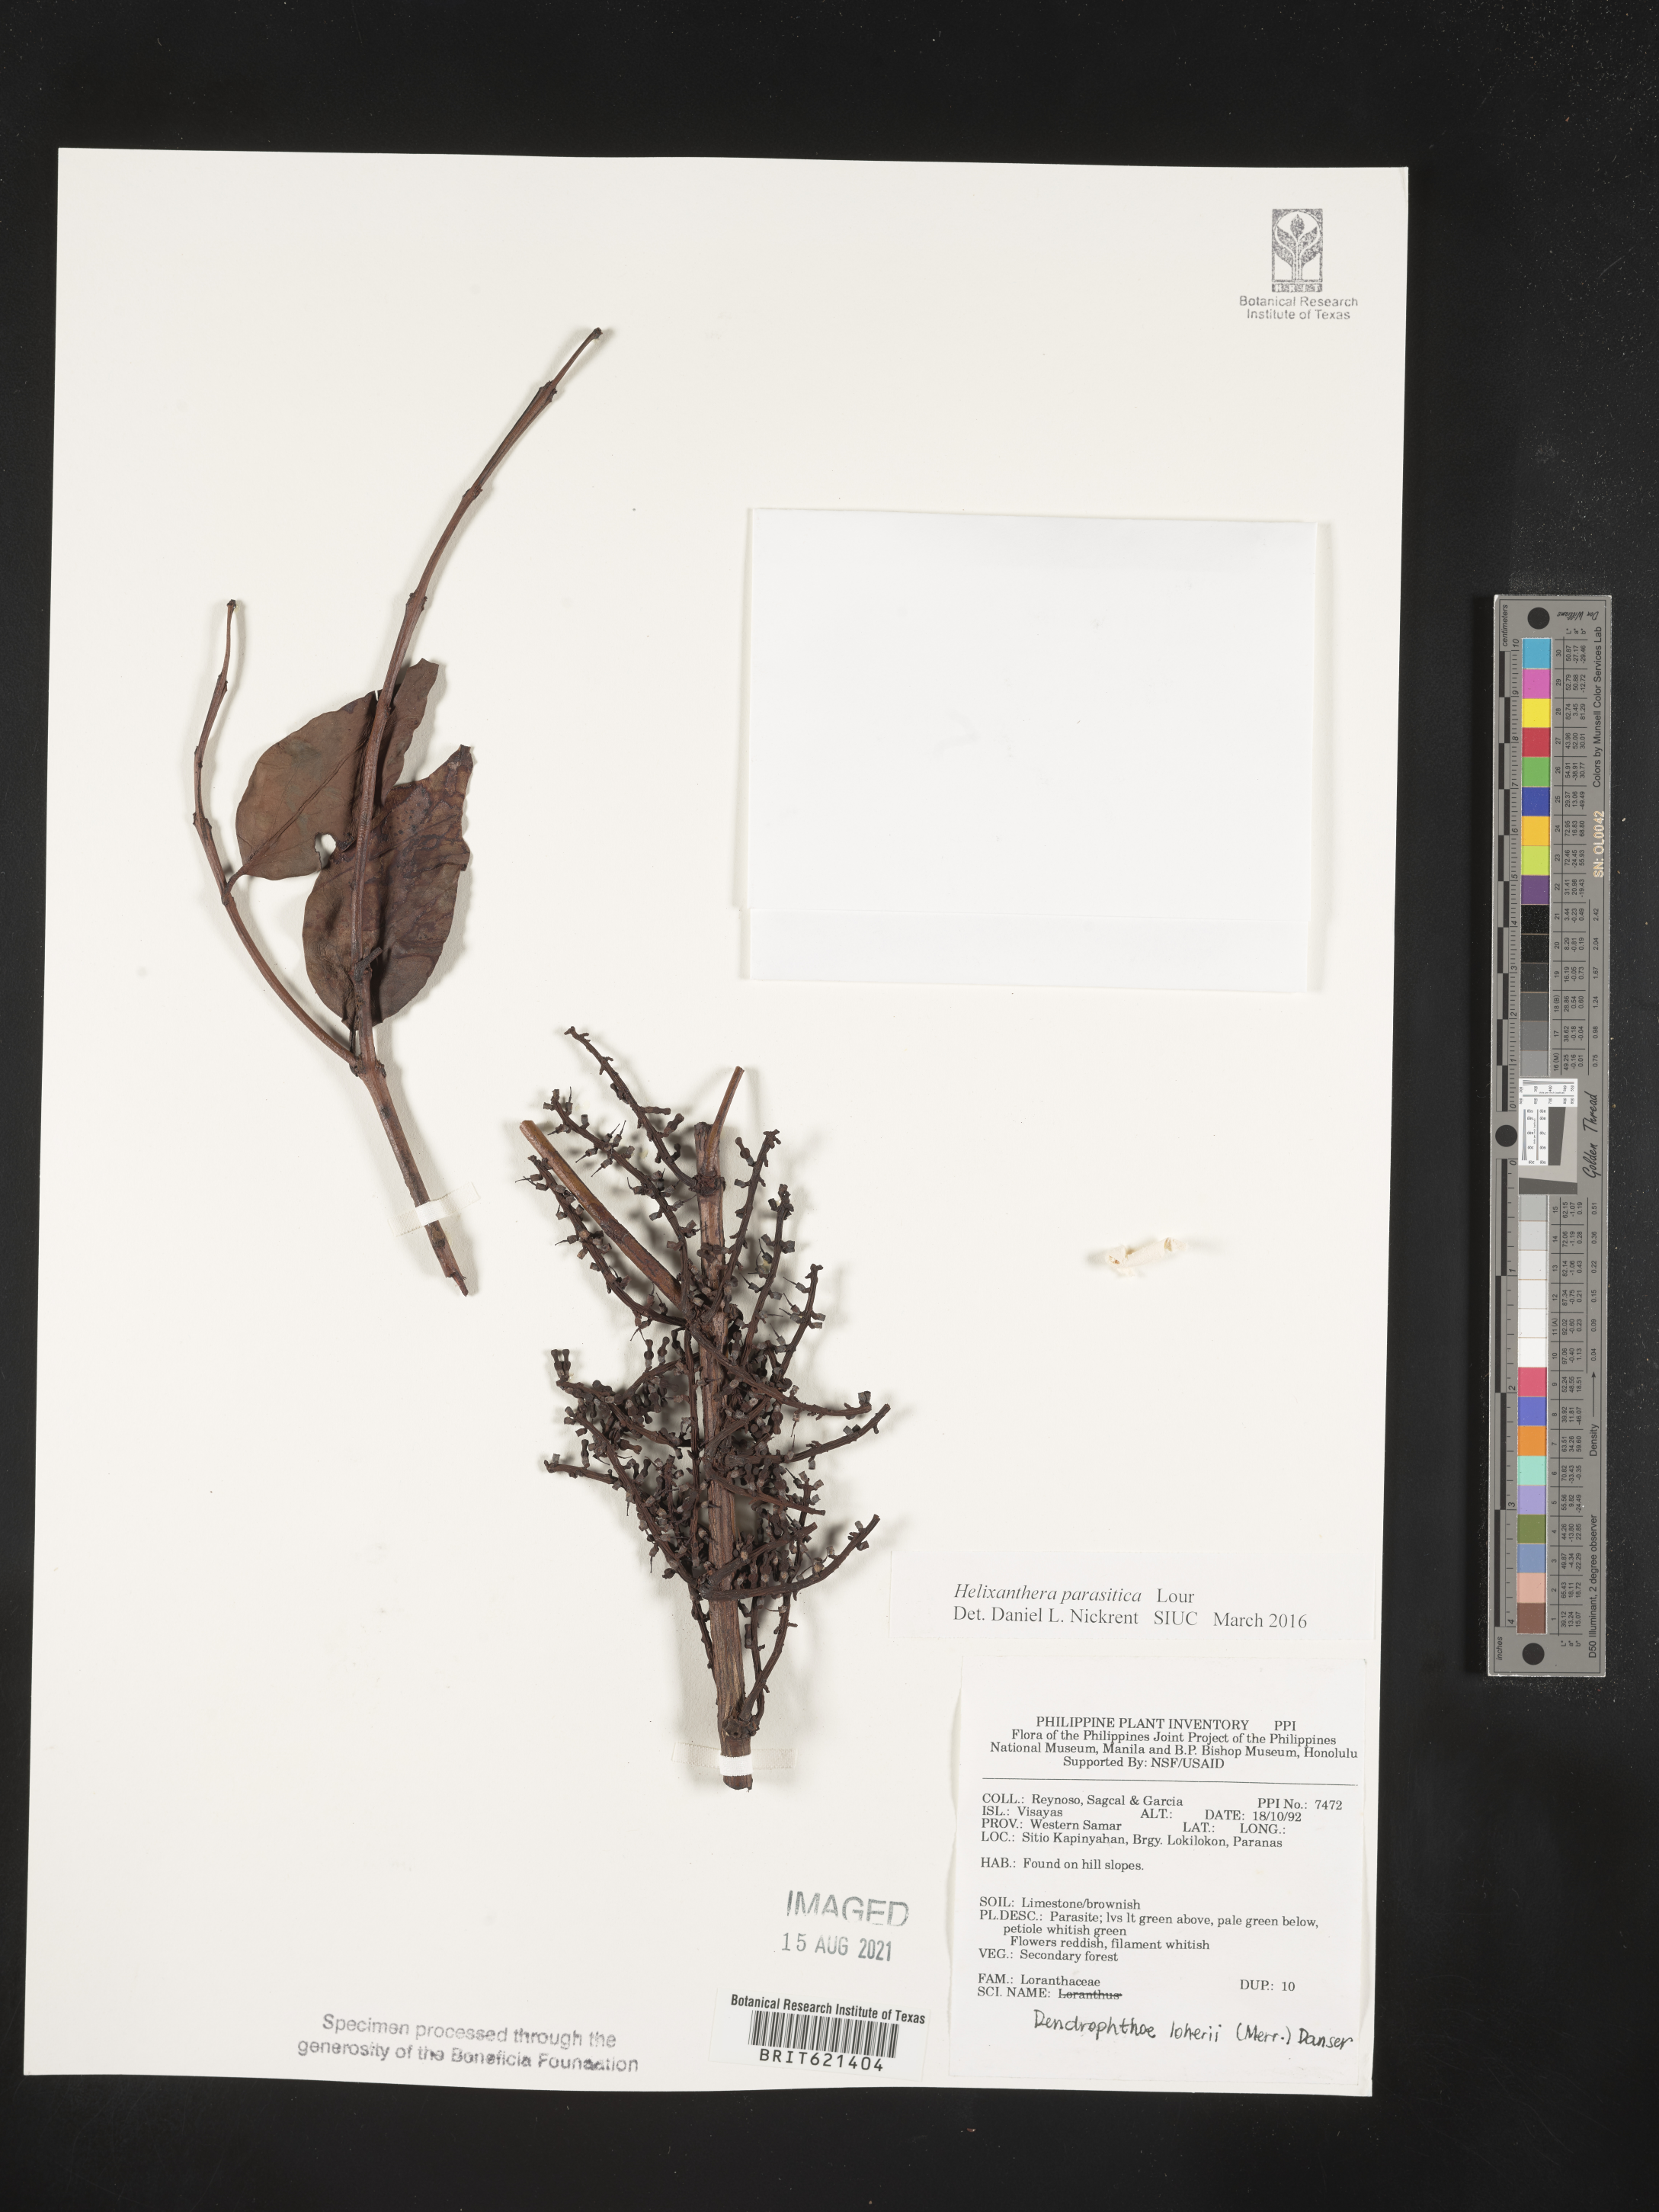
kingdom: Plantae
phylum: Tracheophyta
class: Magnoliopsida
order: Santalales
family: Loranthaceae
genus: Helixanthera
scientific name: Helixanthera parasitica
